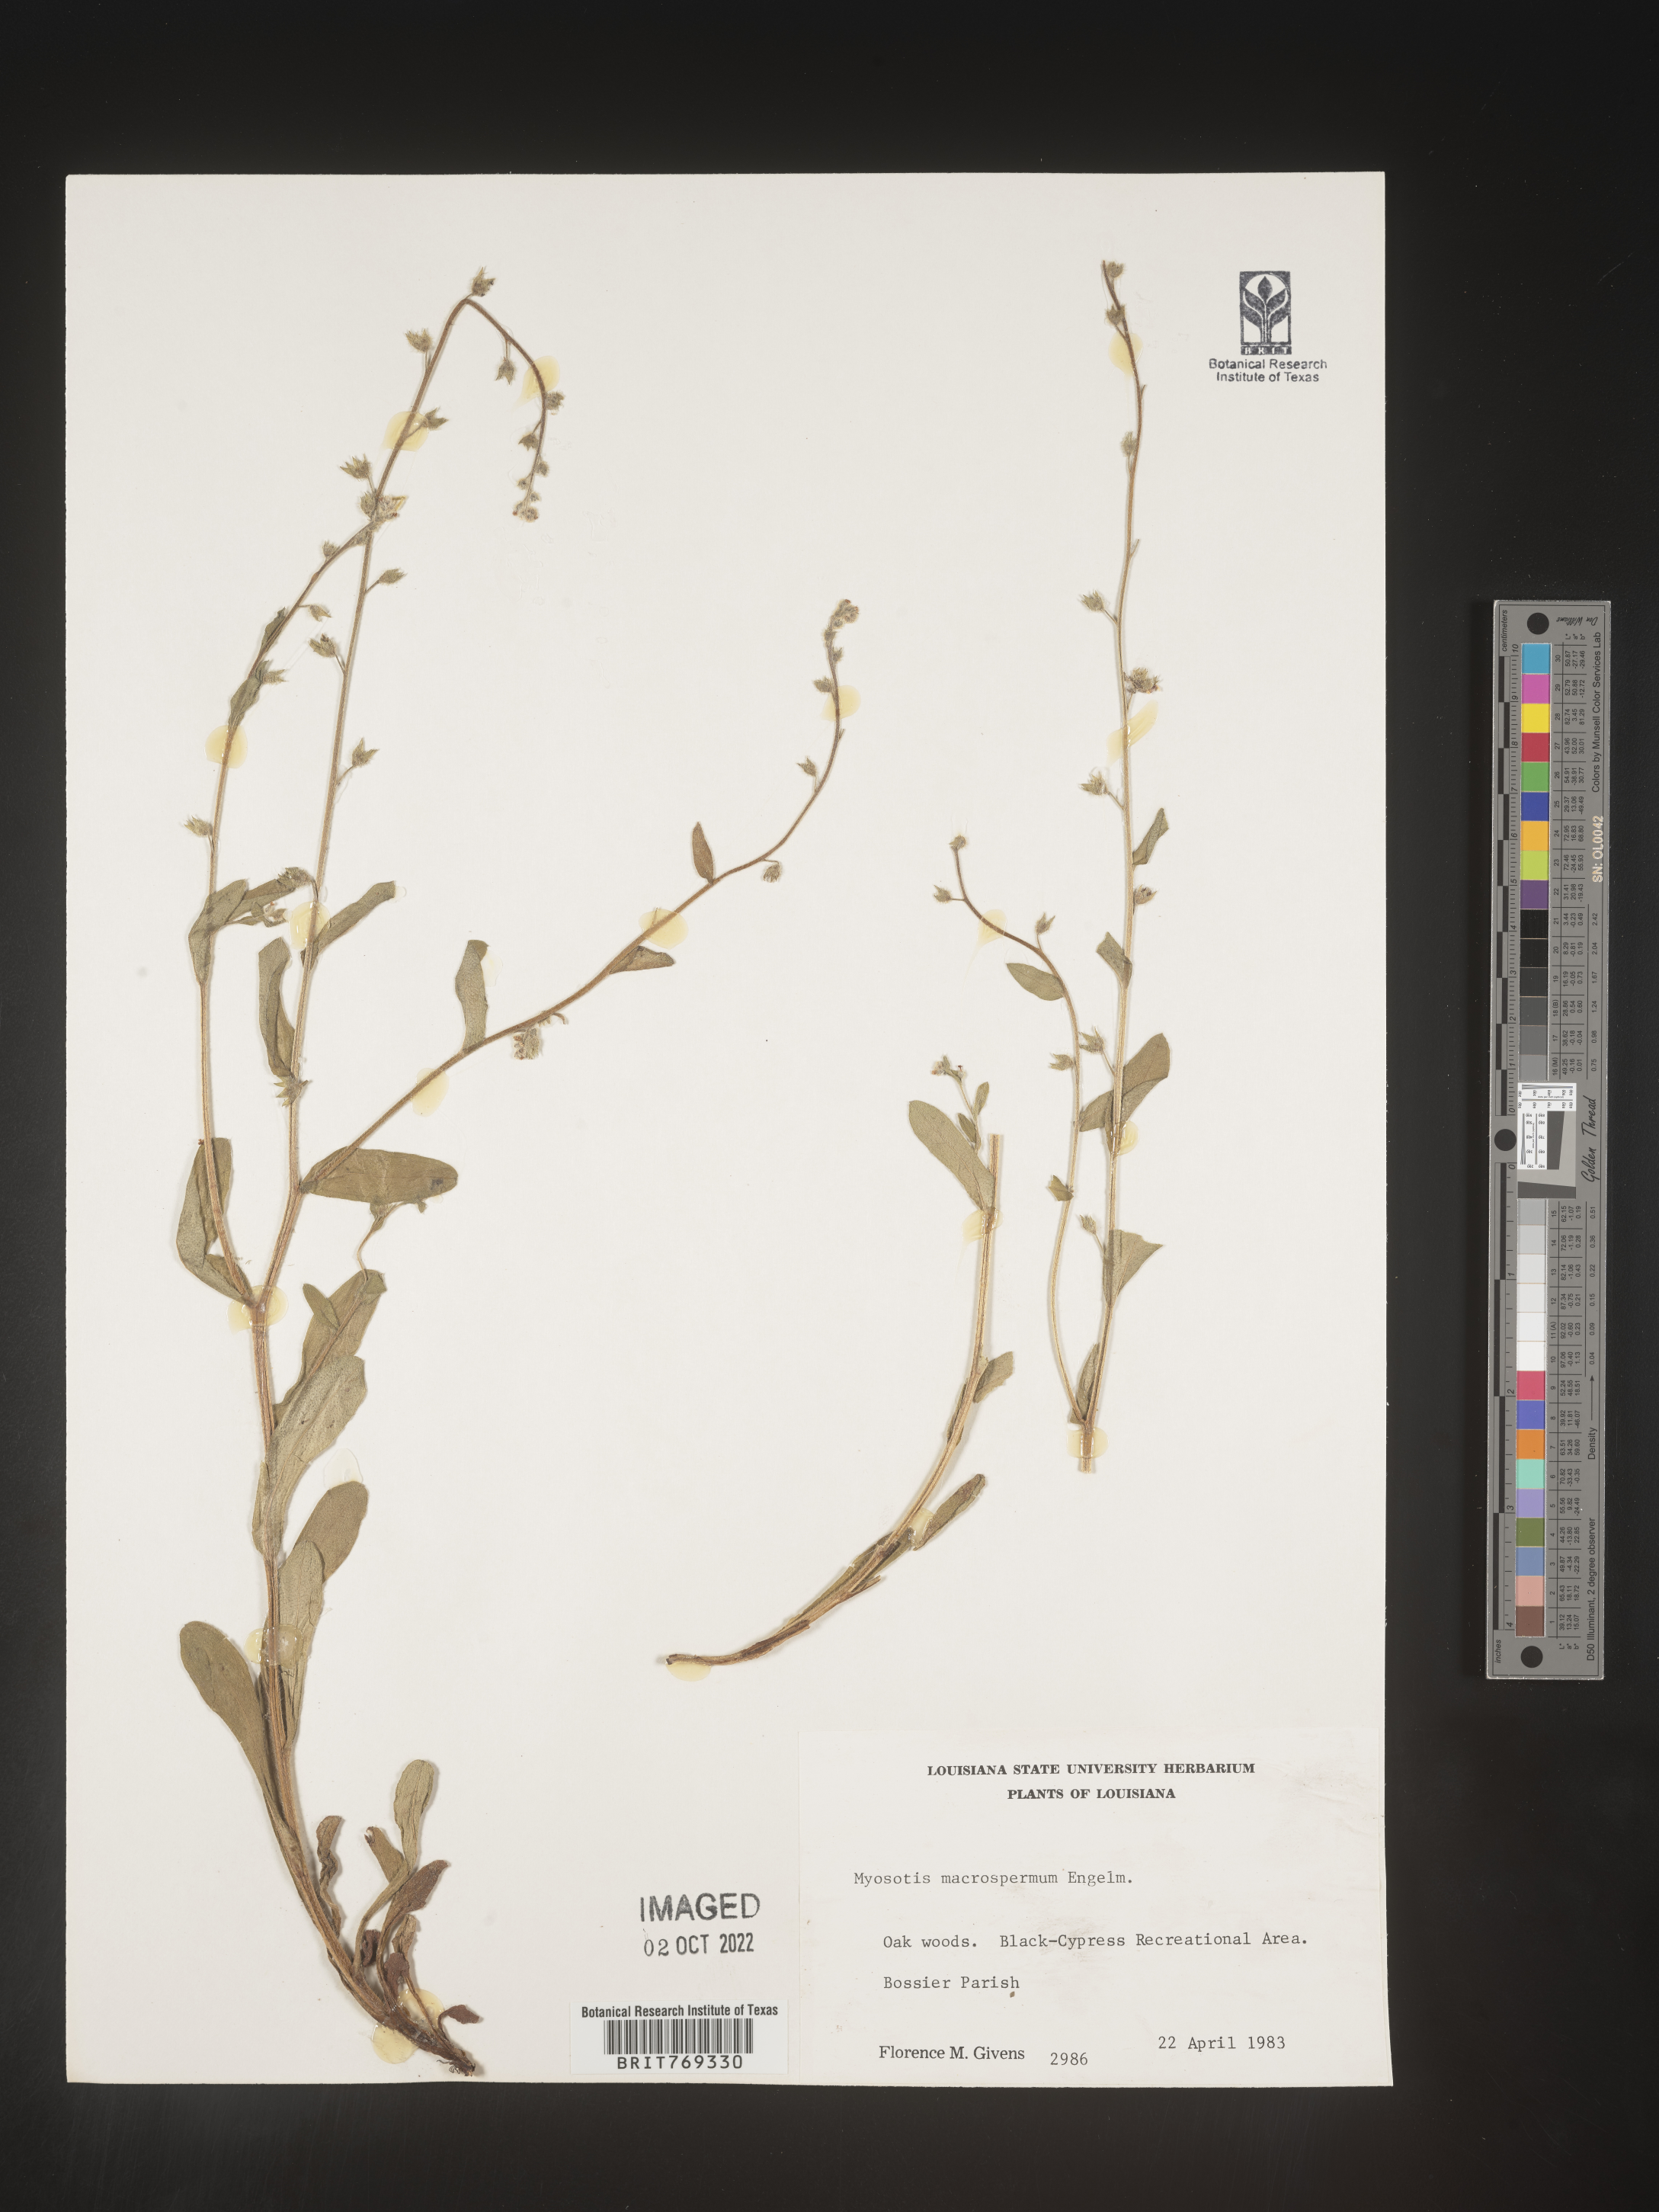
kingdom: Plantae
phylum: Tracheophyta
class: Magnoliopsida
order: Boraginales
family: Boraginaceae
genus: Myosotis
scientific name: Myosotis macrosperma
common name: Large-seed forget-me-not
